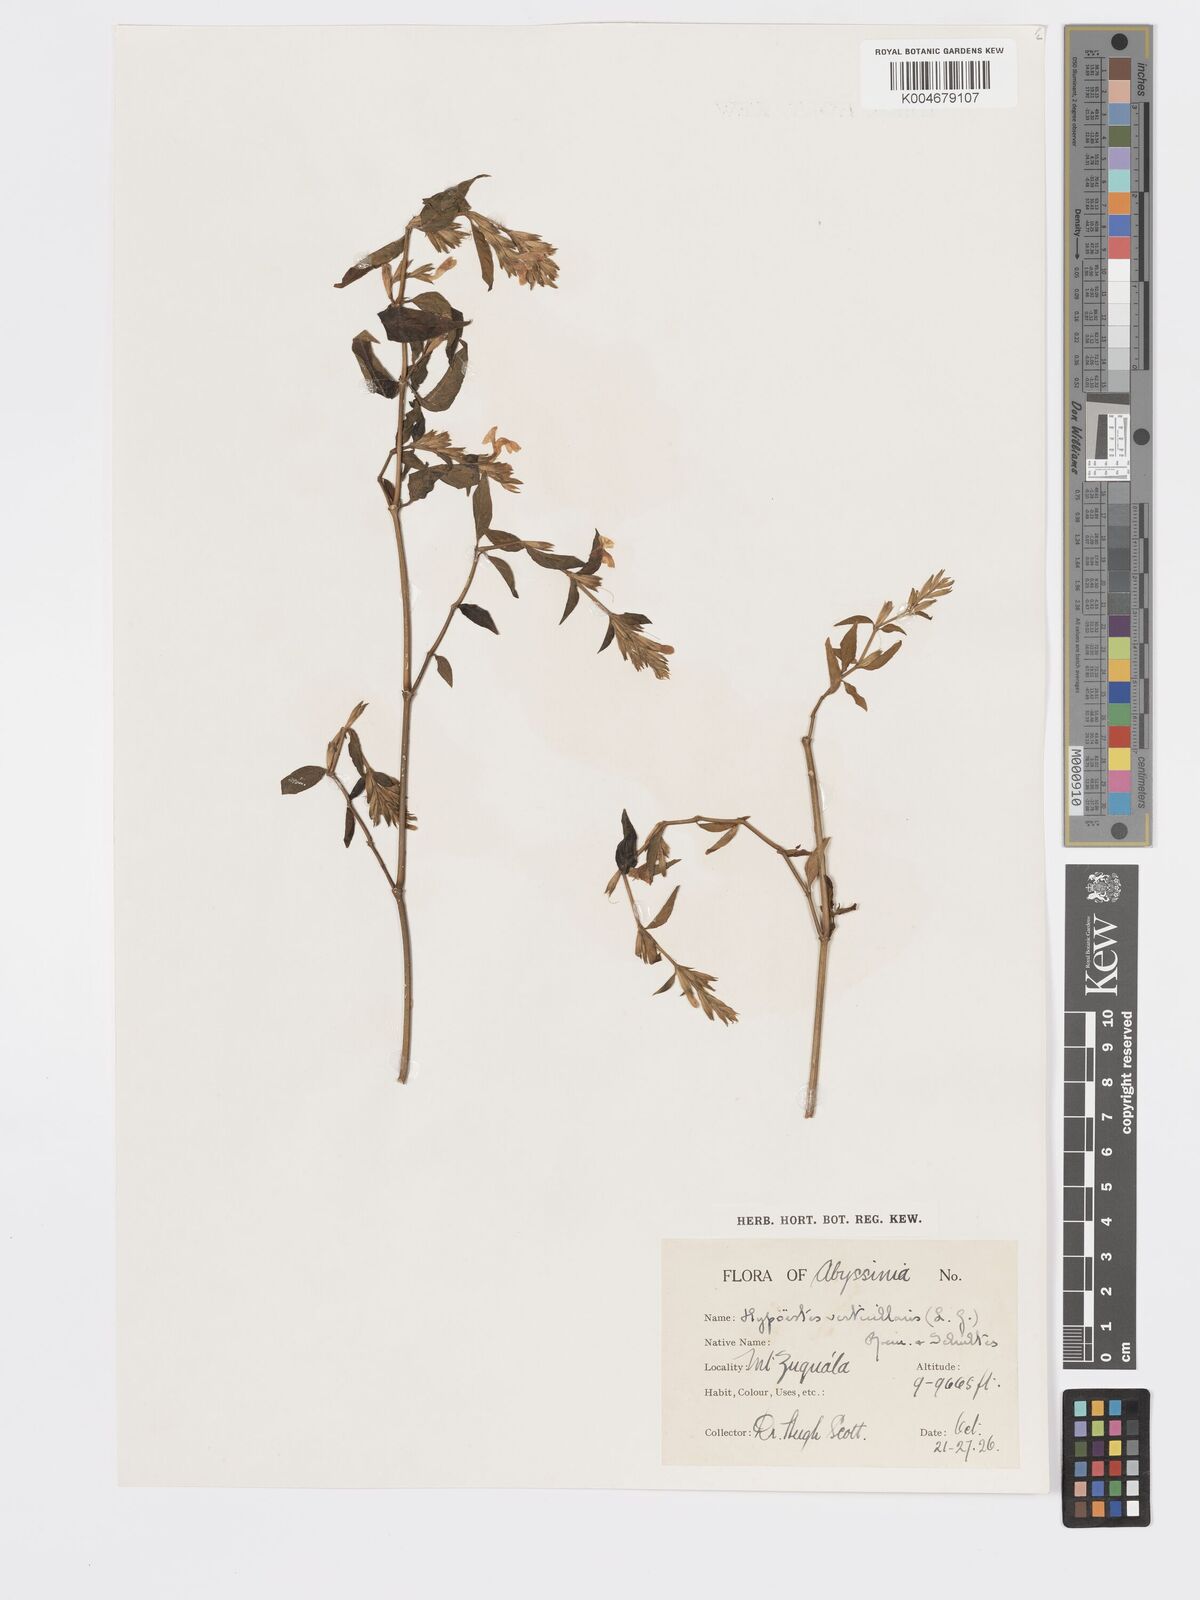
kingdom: Plantae
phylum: Tracheophyta
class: Magnoliopsida
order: Lamiales
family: Acanthaceae
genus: Hypoestes
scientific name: Hypoestes forskaolii
